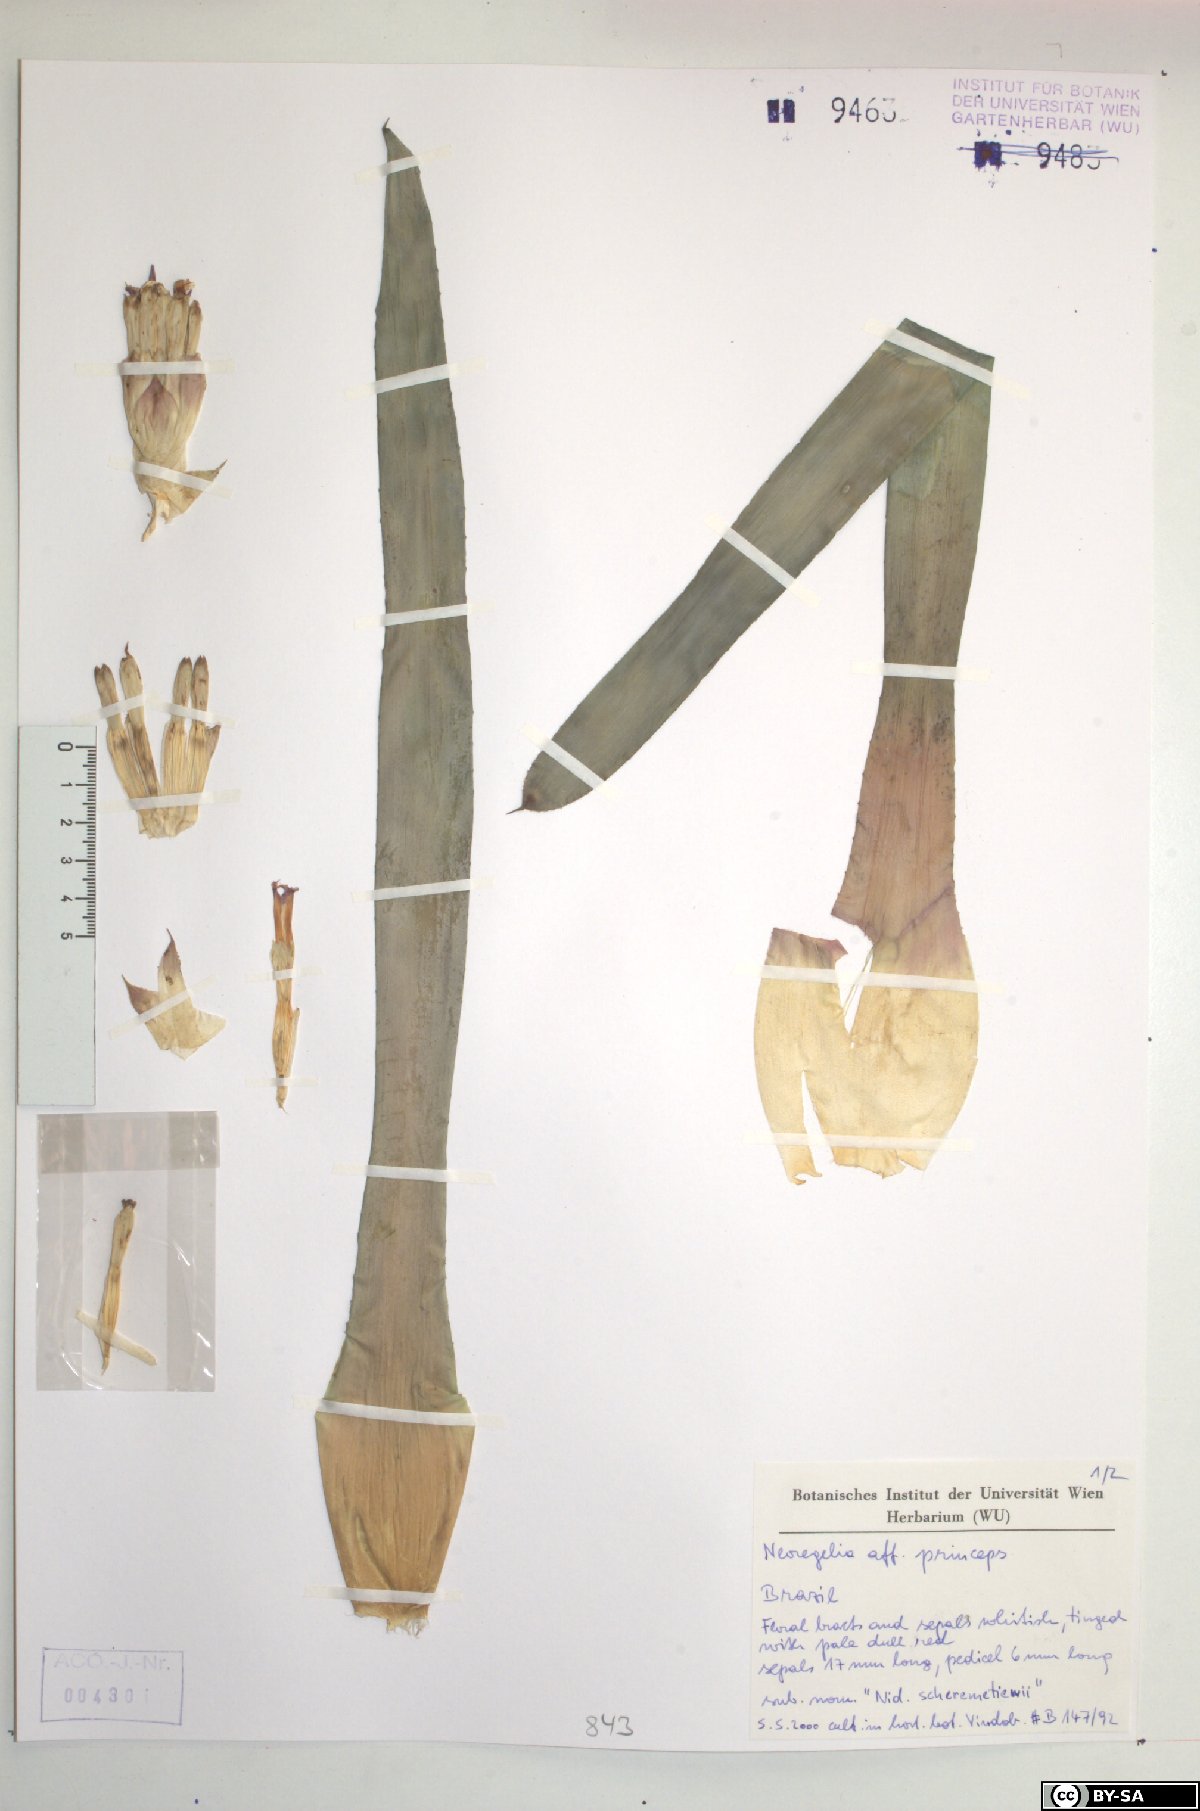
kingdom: Plantae
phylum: Tracheophyta
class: Liliopsida
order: Poales
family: Bromeliaceae
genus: Neoregelia
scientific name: Neoregelia princeps
